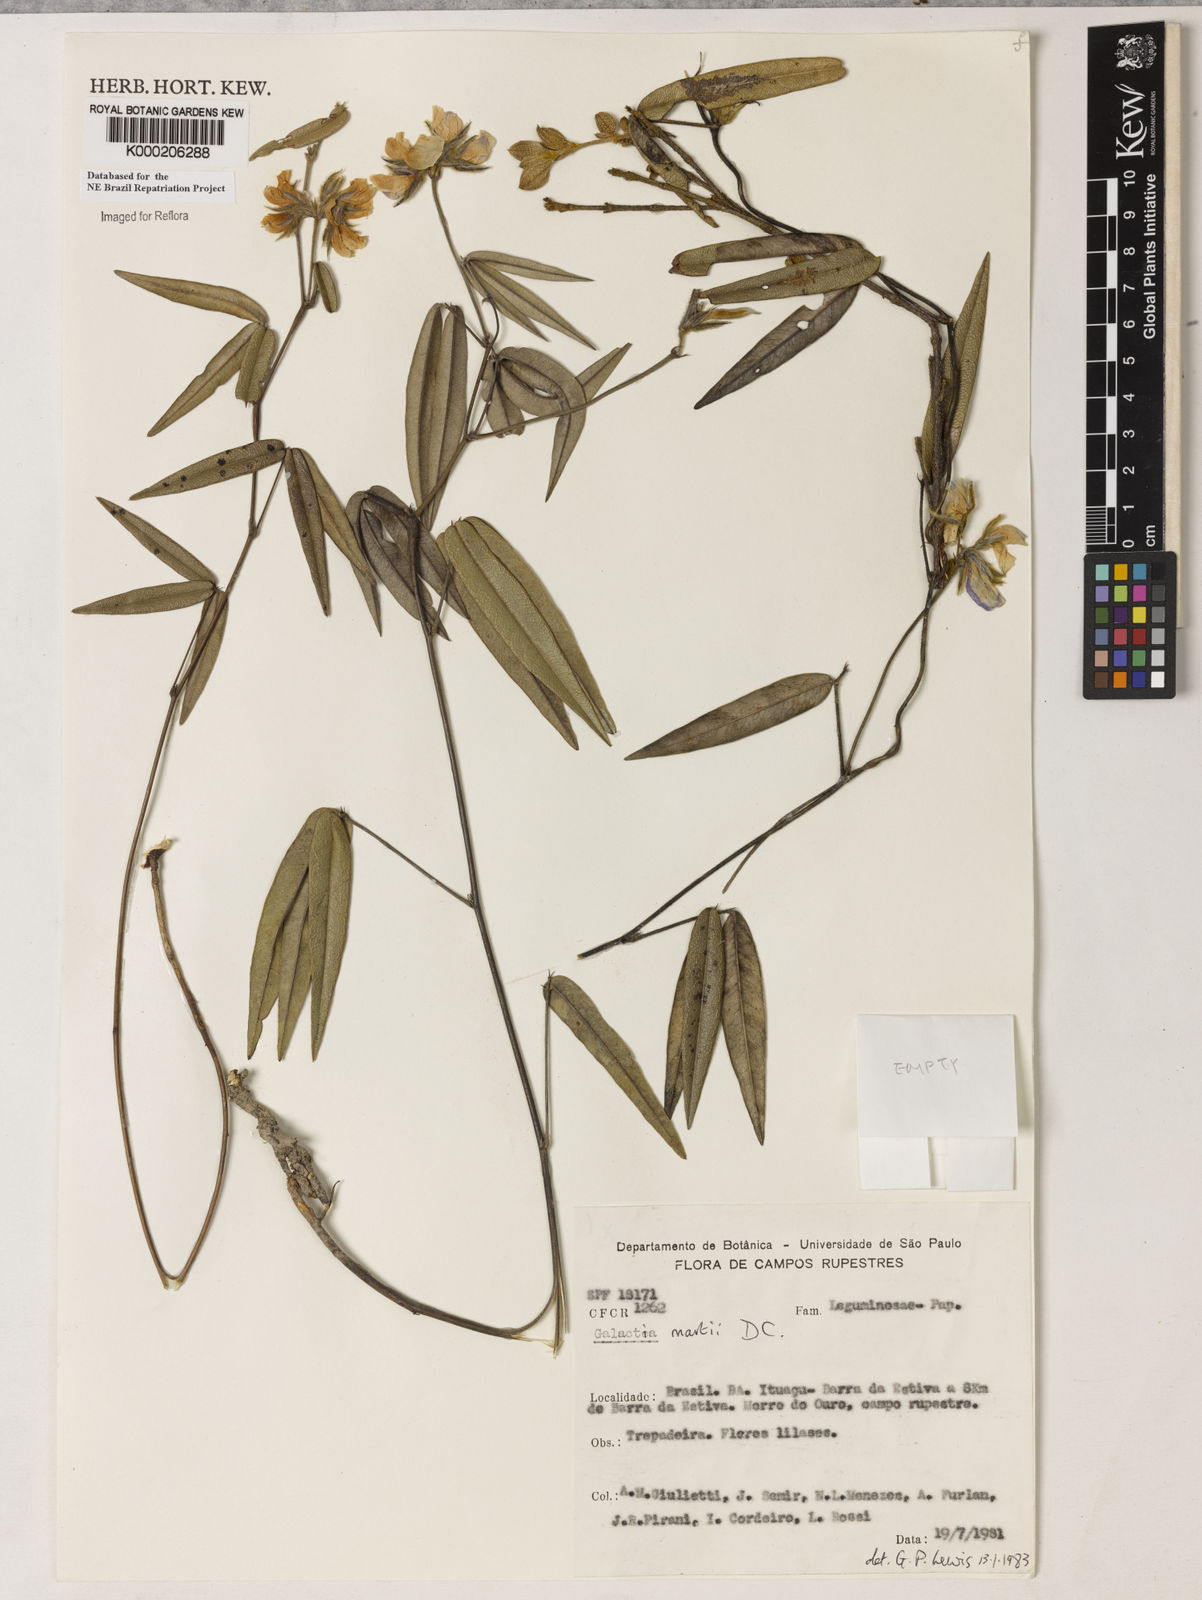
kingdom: Plantae
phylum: Tracheophyta
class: Magnoliopsida
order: Fabales
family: Fabaceae
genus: Betencourtia
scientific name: Betencourtia martii
